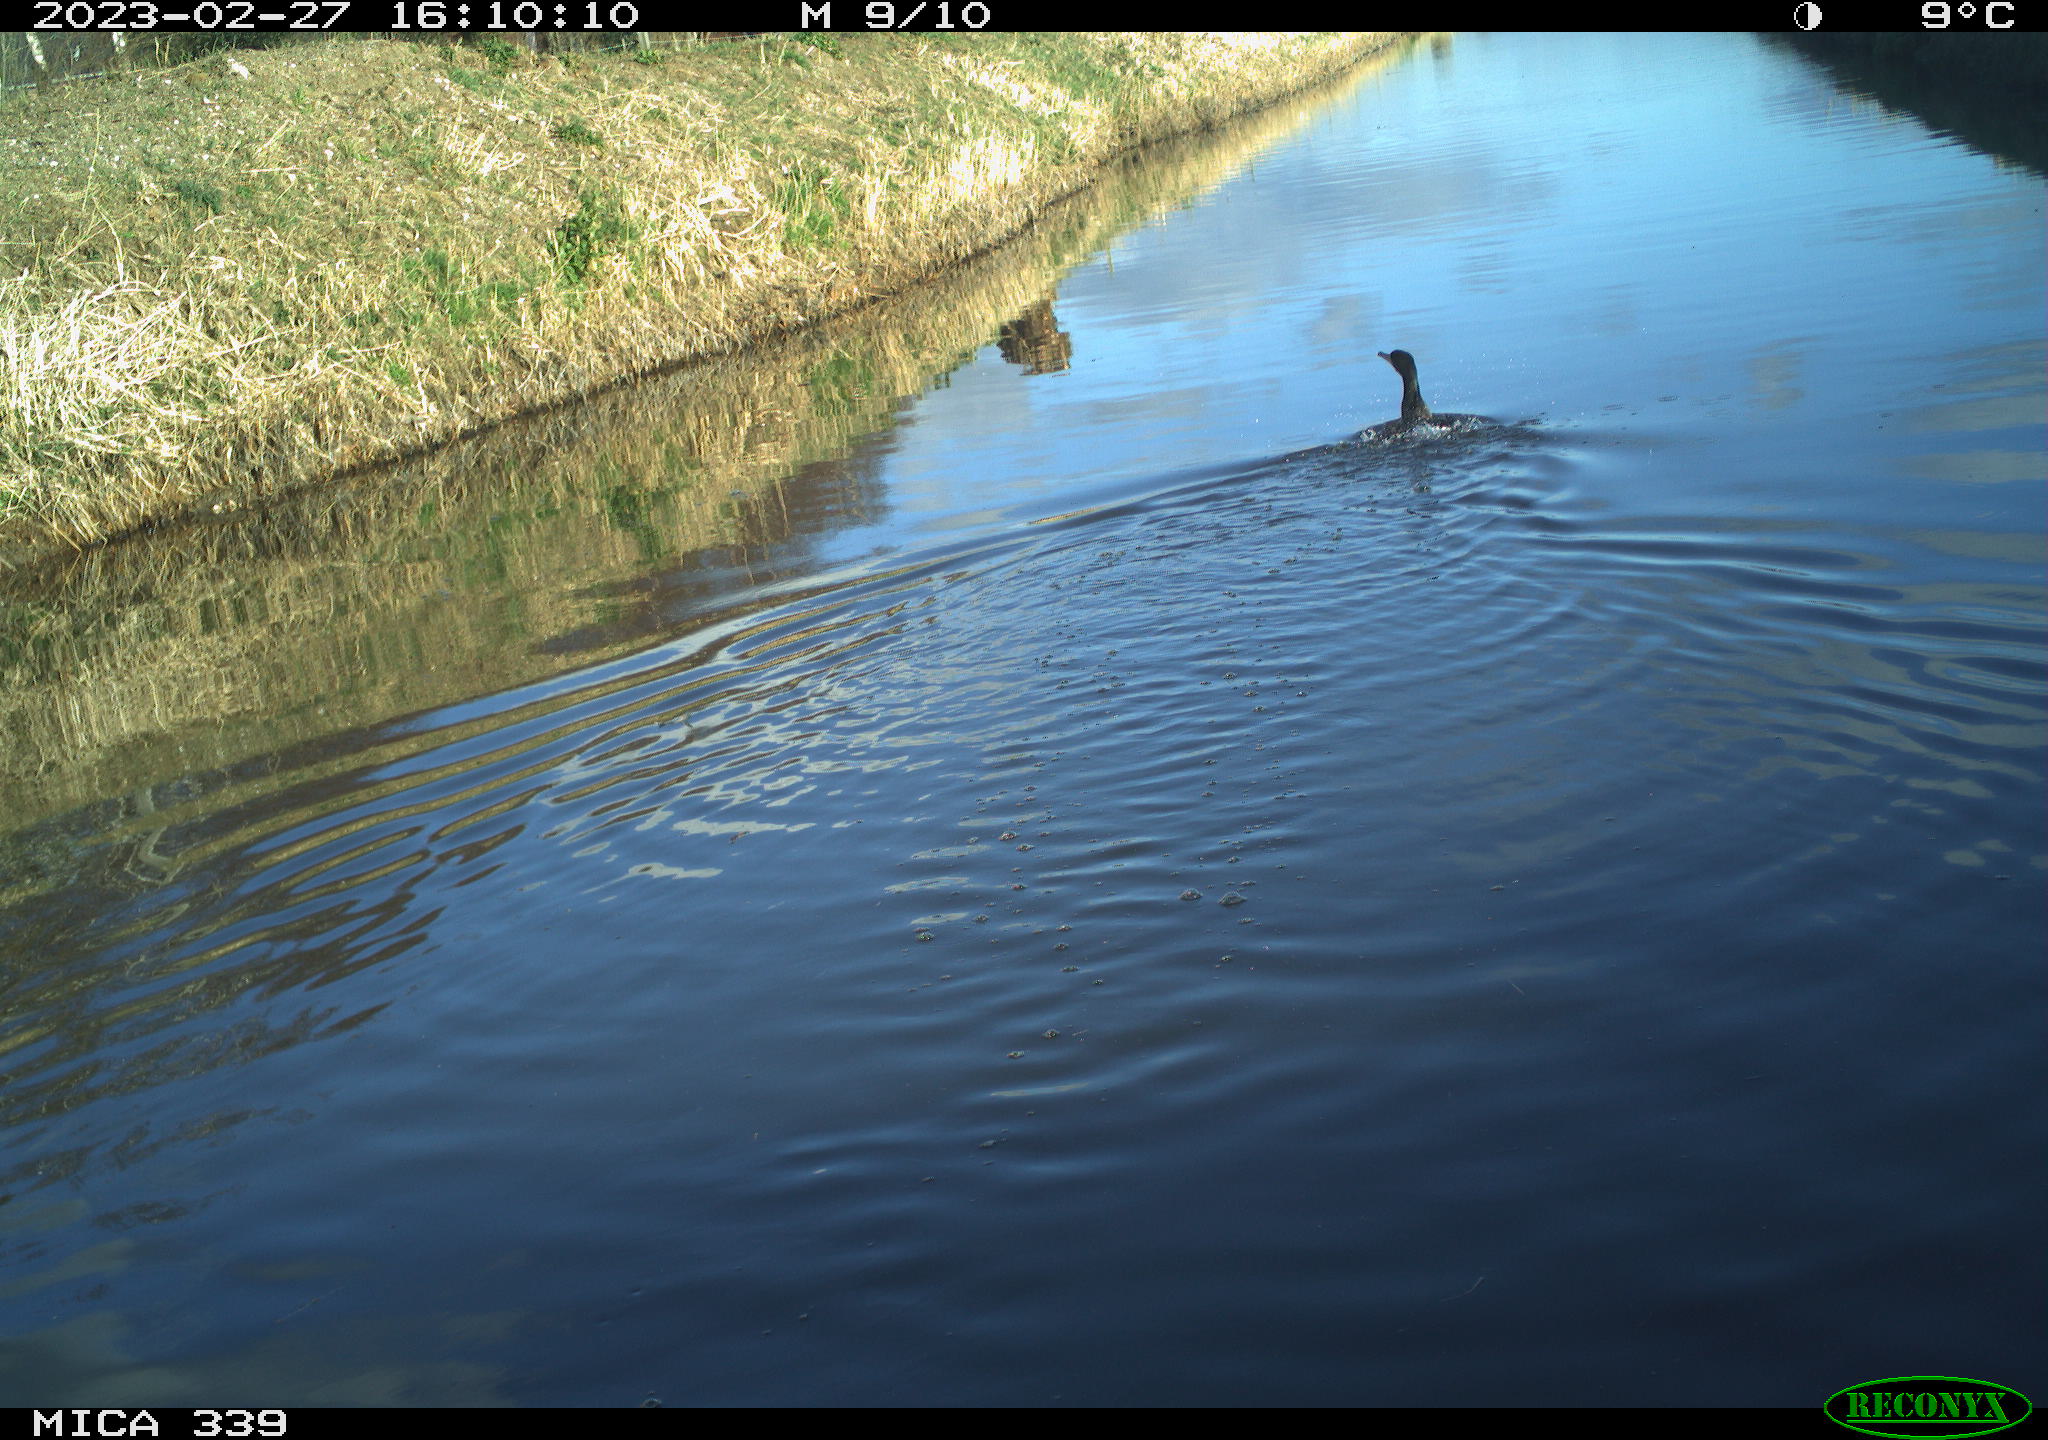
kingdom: Animalia
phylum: Chordata
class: Aves
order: Suliformes
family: Phalacrocoracidae
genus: Phalacrocorax
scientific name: Phalacrocorax carbo
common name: Great cormorant
